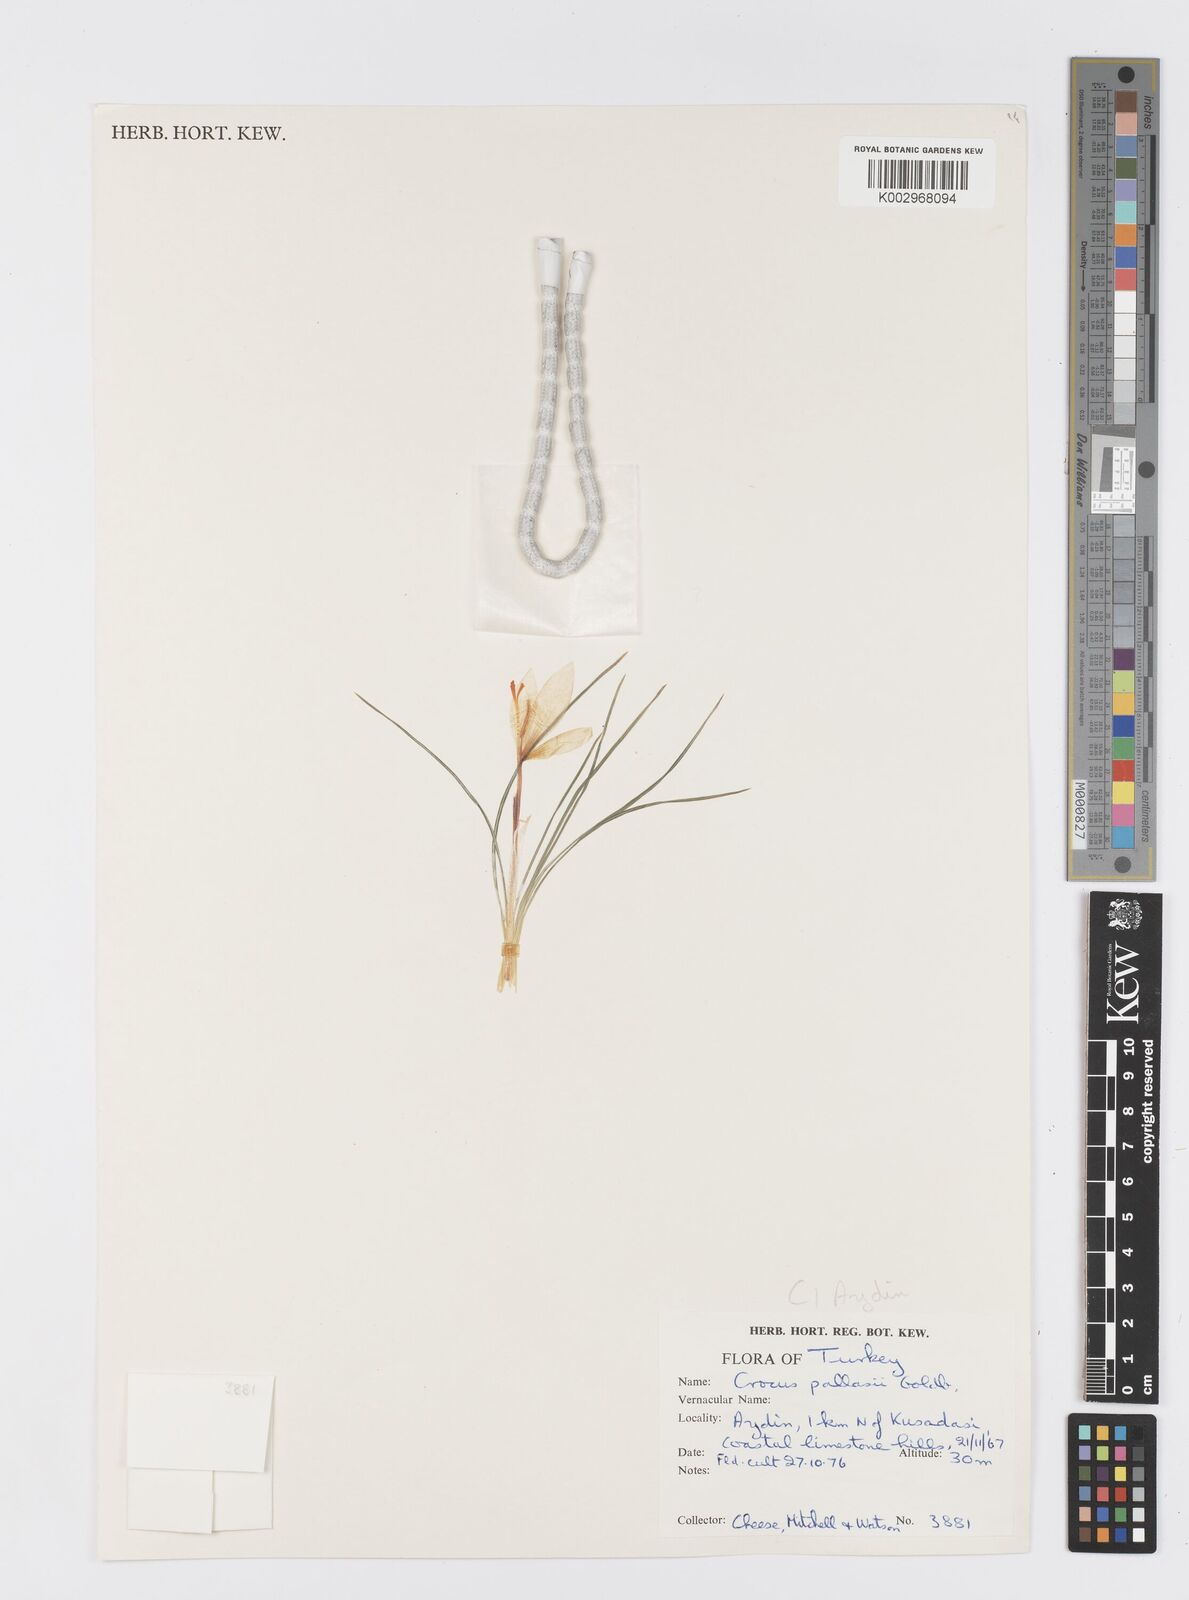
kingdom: Plantae
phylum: Tracheophyta
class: Liliopsida
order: Asparagales
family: Iridaceae
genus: Crocus
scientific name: Crocus
